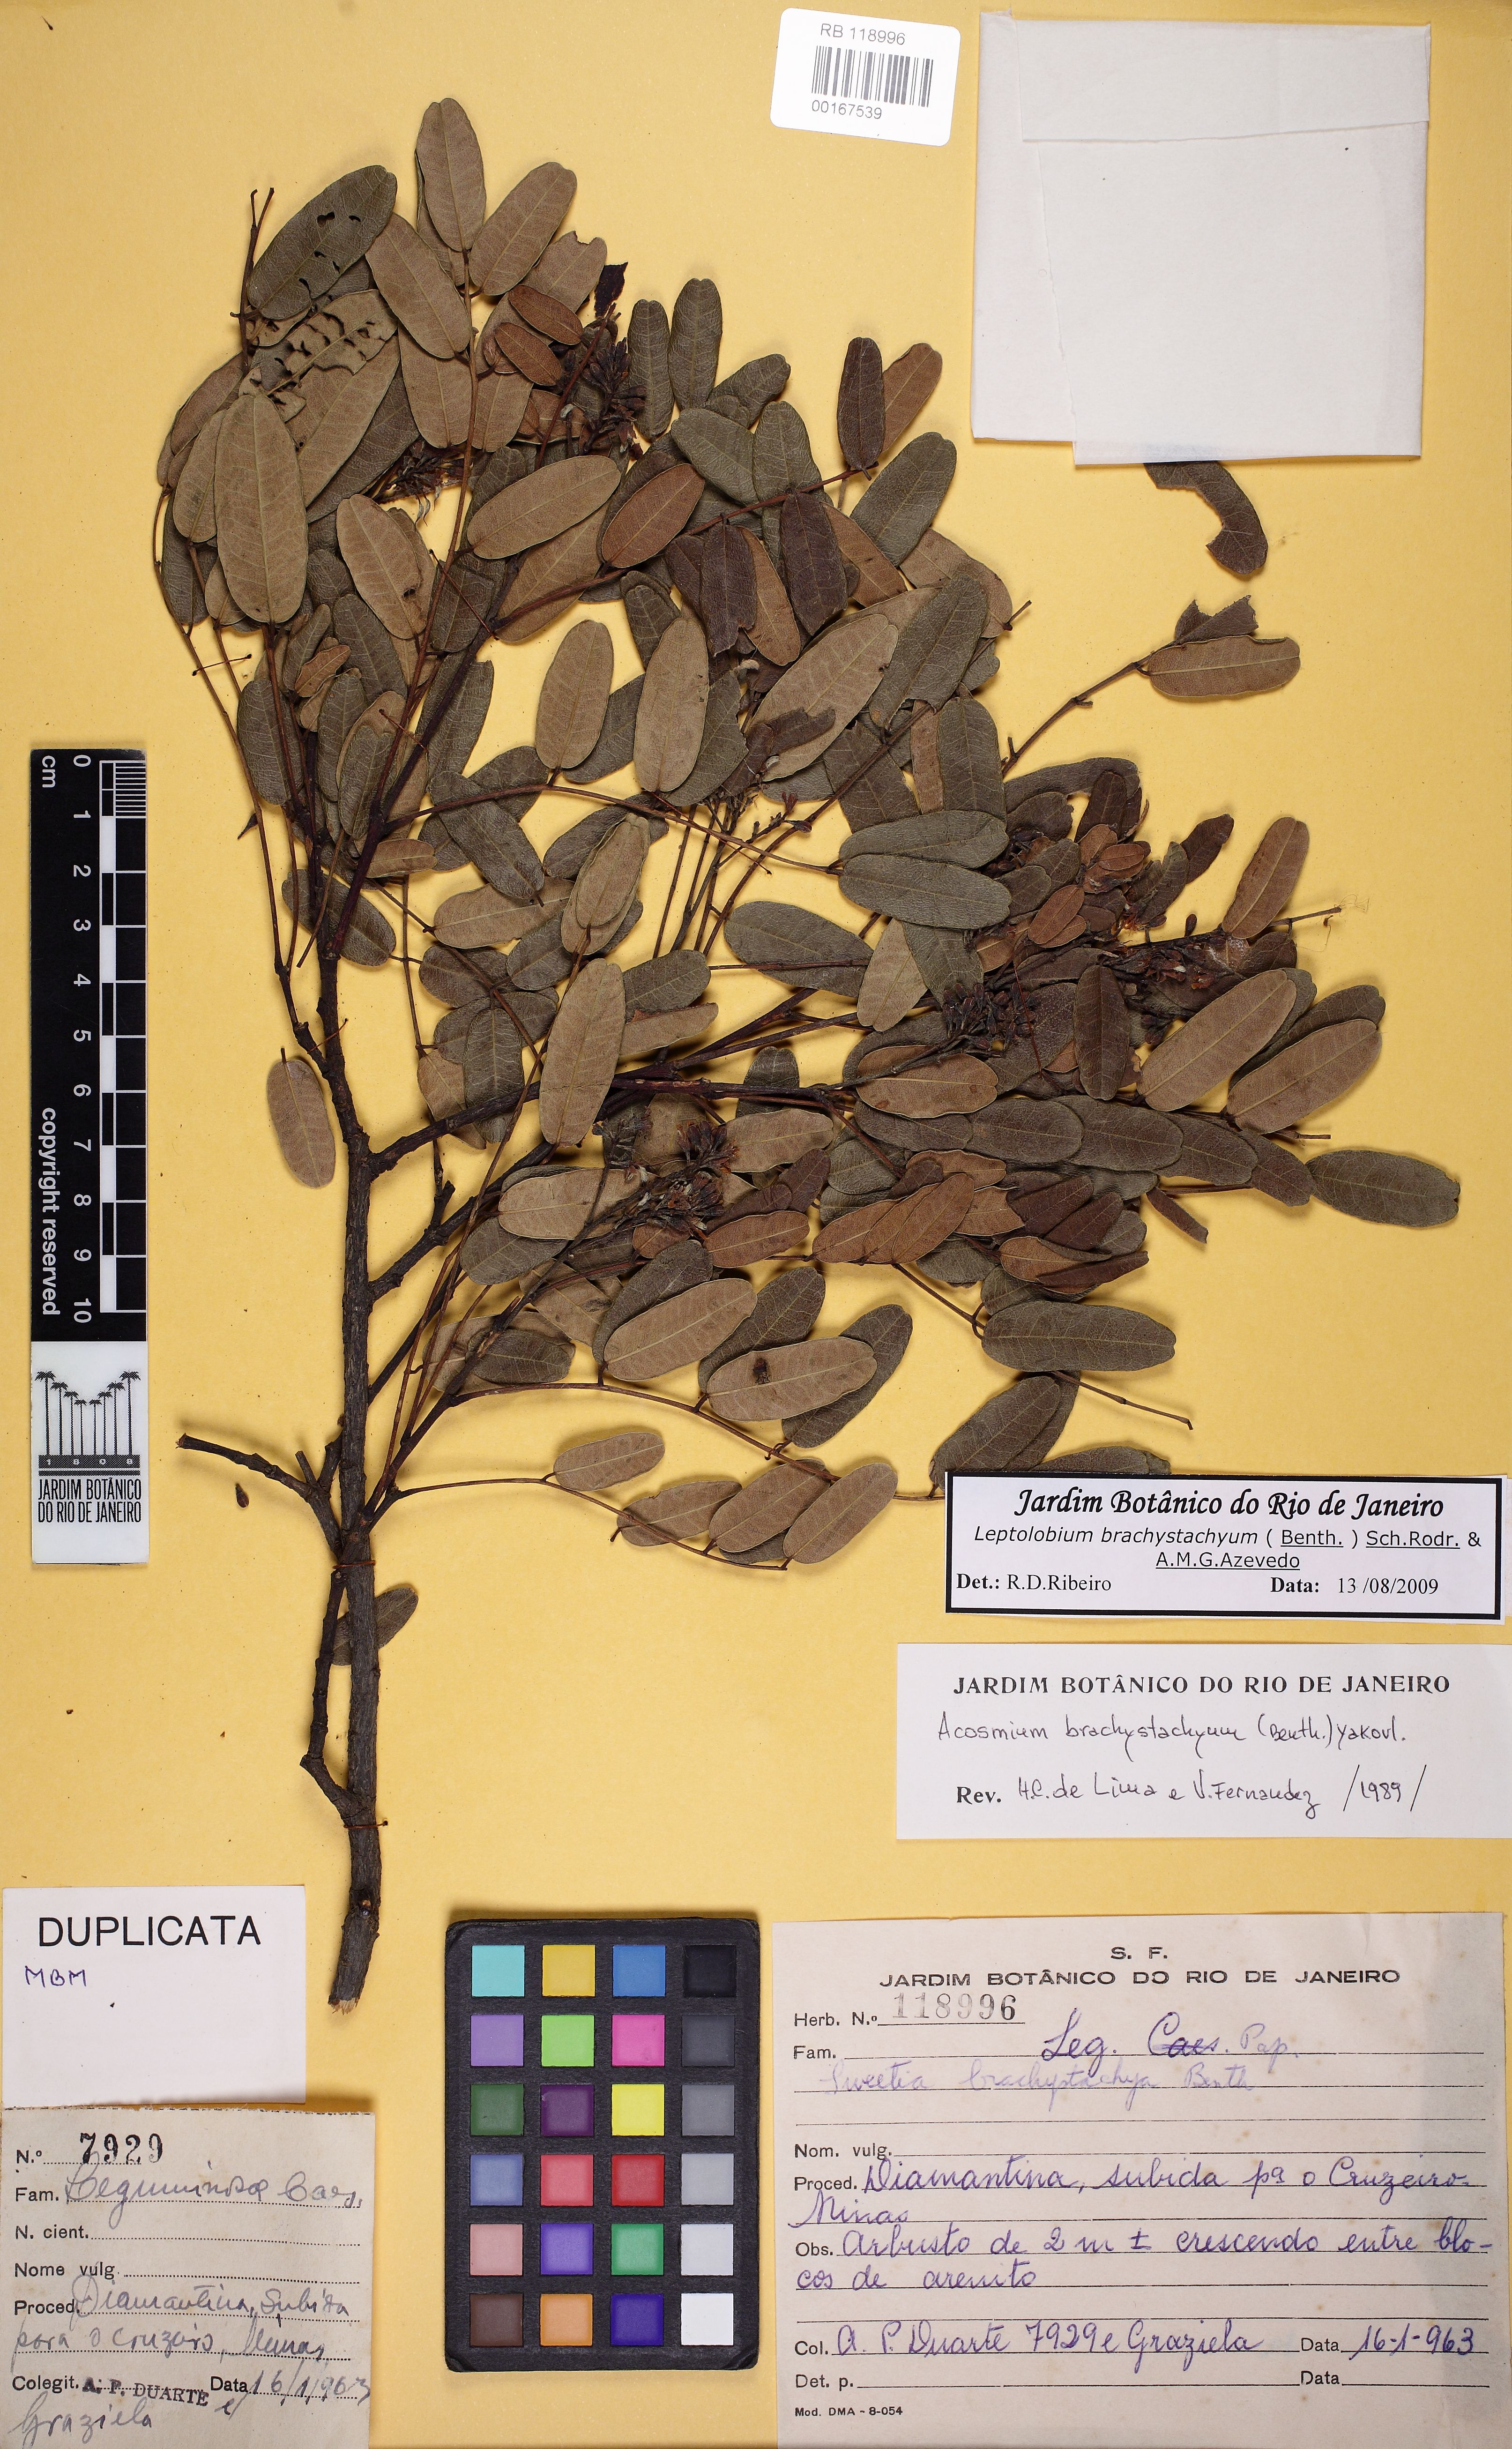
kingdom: Plantae
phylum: Tracheophyta
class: Magnoliopsida
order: Fabales
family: Fabaceae
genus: Leptolobium
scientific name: Leptolobium brachystachyum
